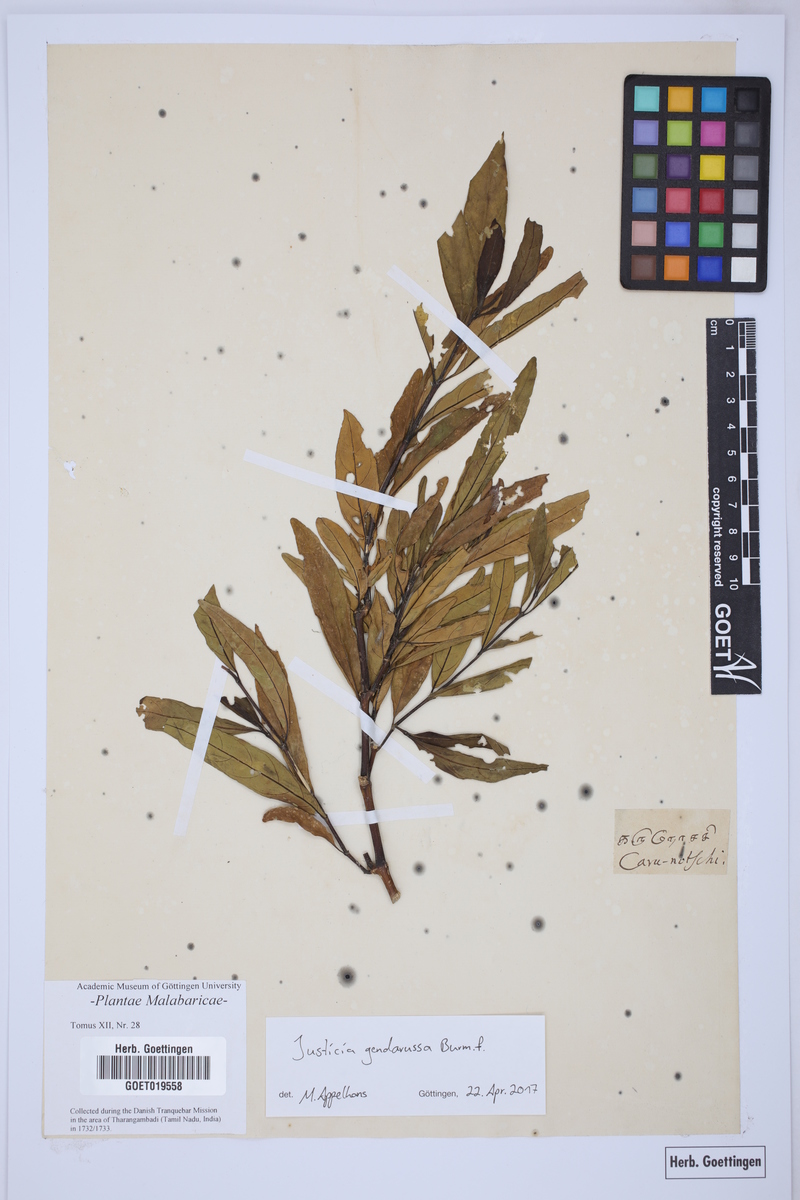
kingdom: Plantae
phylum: Tracheophyta
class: Magnoliopsida
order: Lamiales
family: Acanthaceae
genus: Justicia
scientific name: Justicia gendarussa
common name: Warer willow
